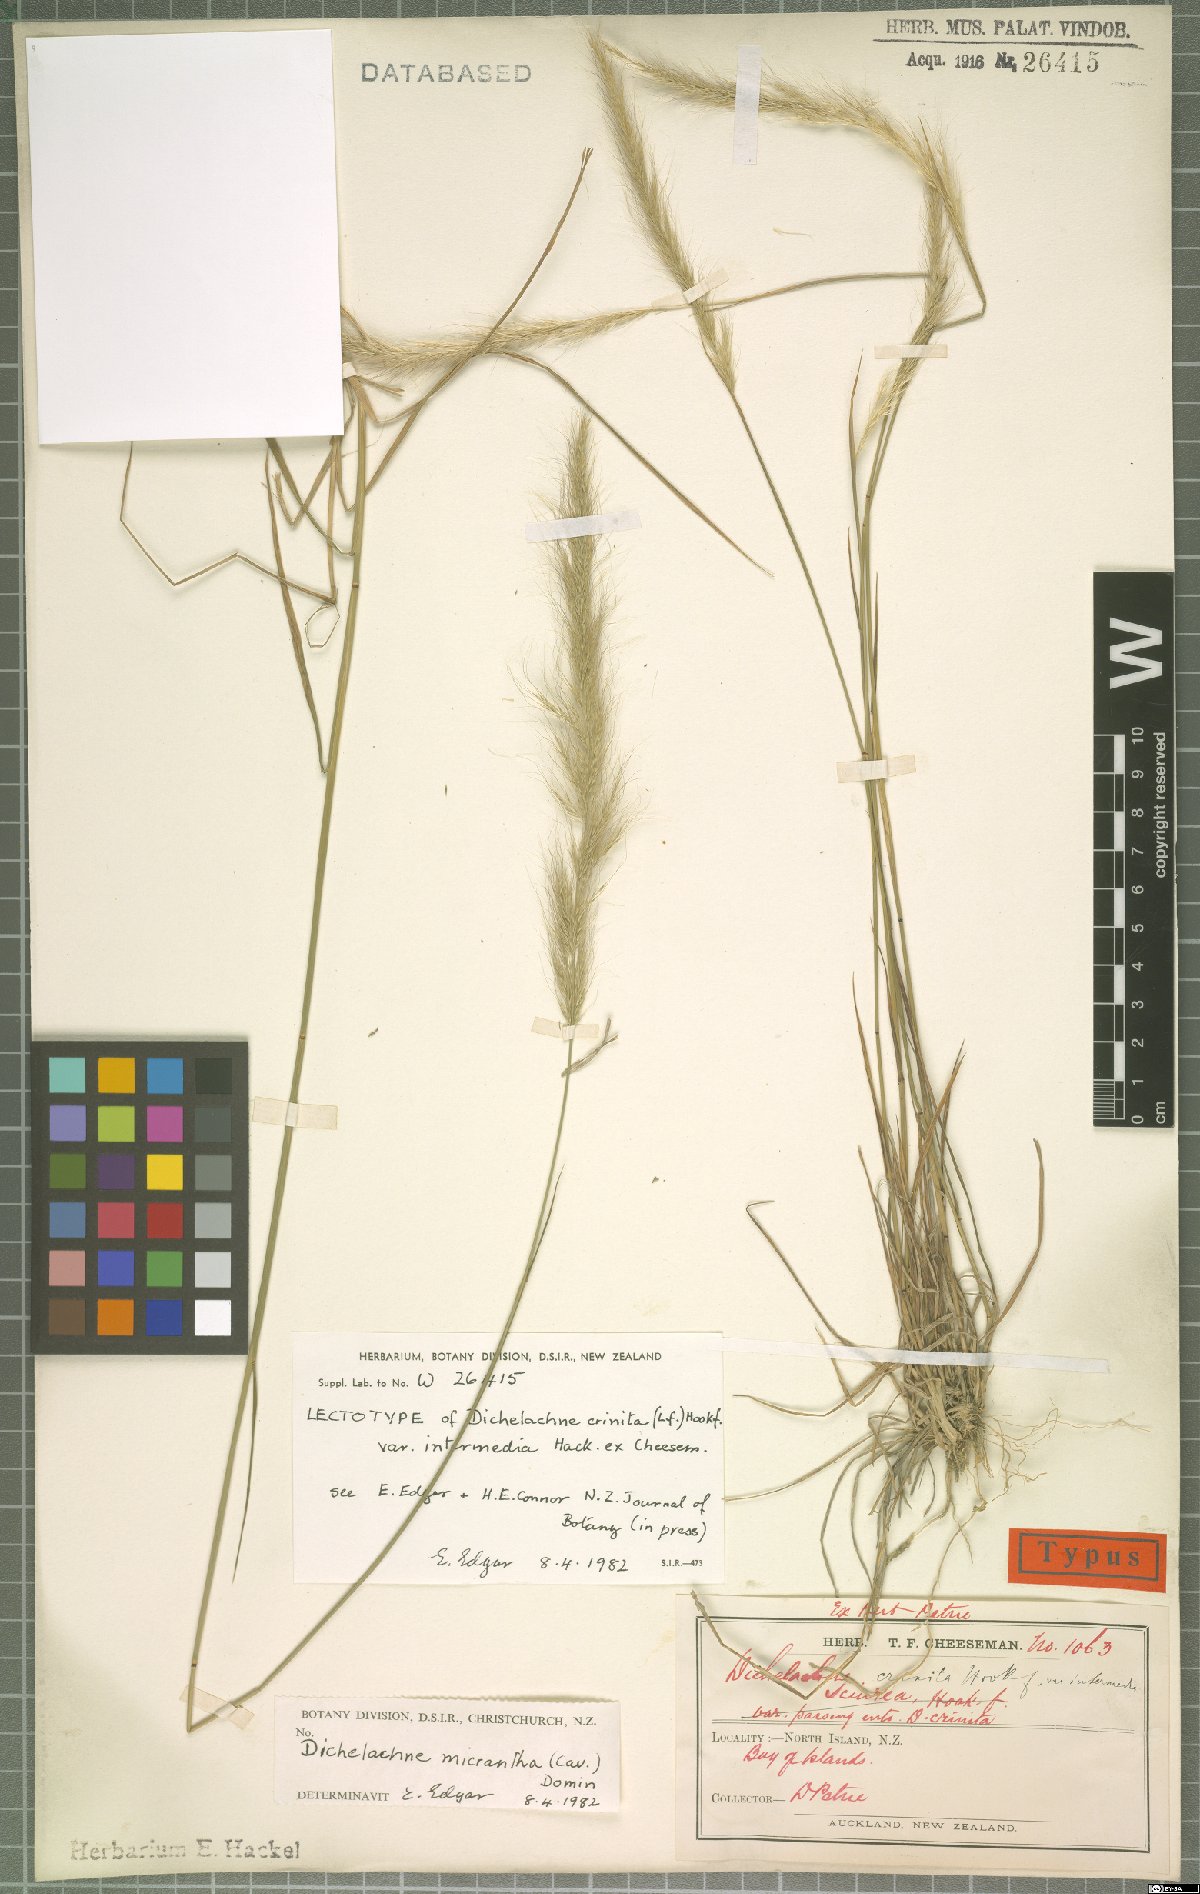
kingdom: Plantae
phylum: Tracheophyta
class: Liliopsida
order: Poales
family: Poaceae
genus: Dichelachne
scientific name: Dichelachne micrantha
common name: Plumegrass
